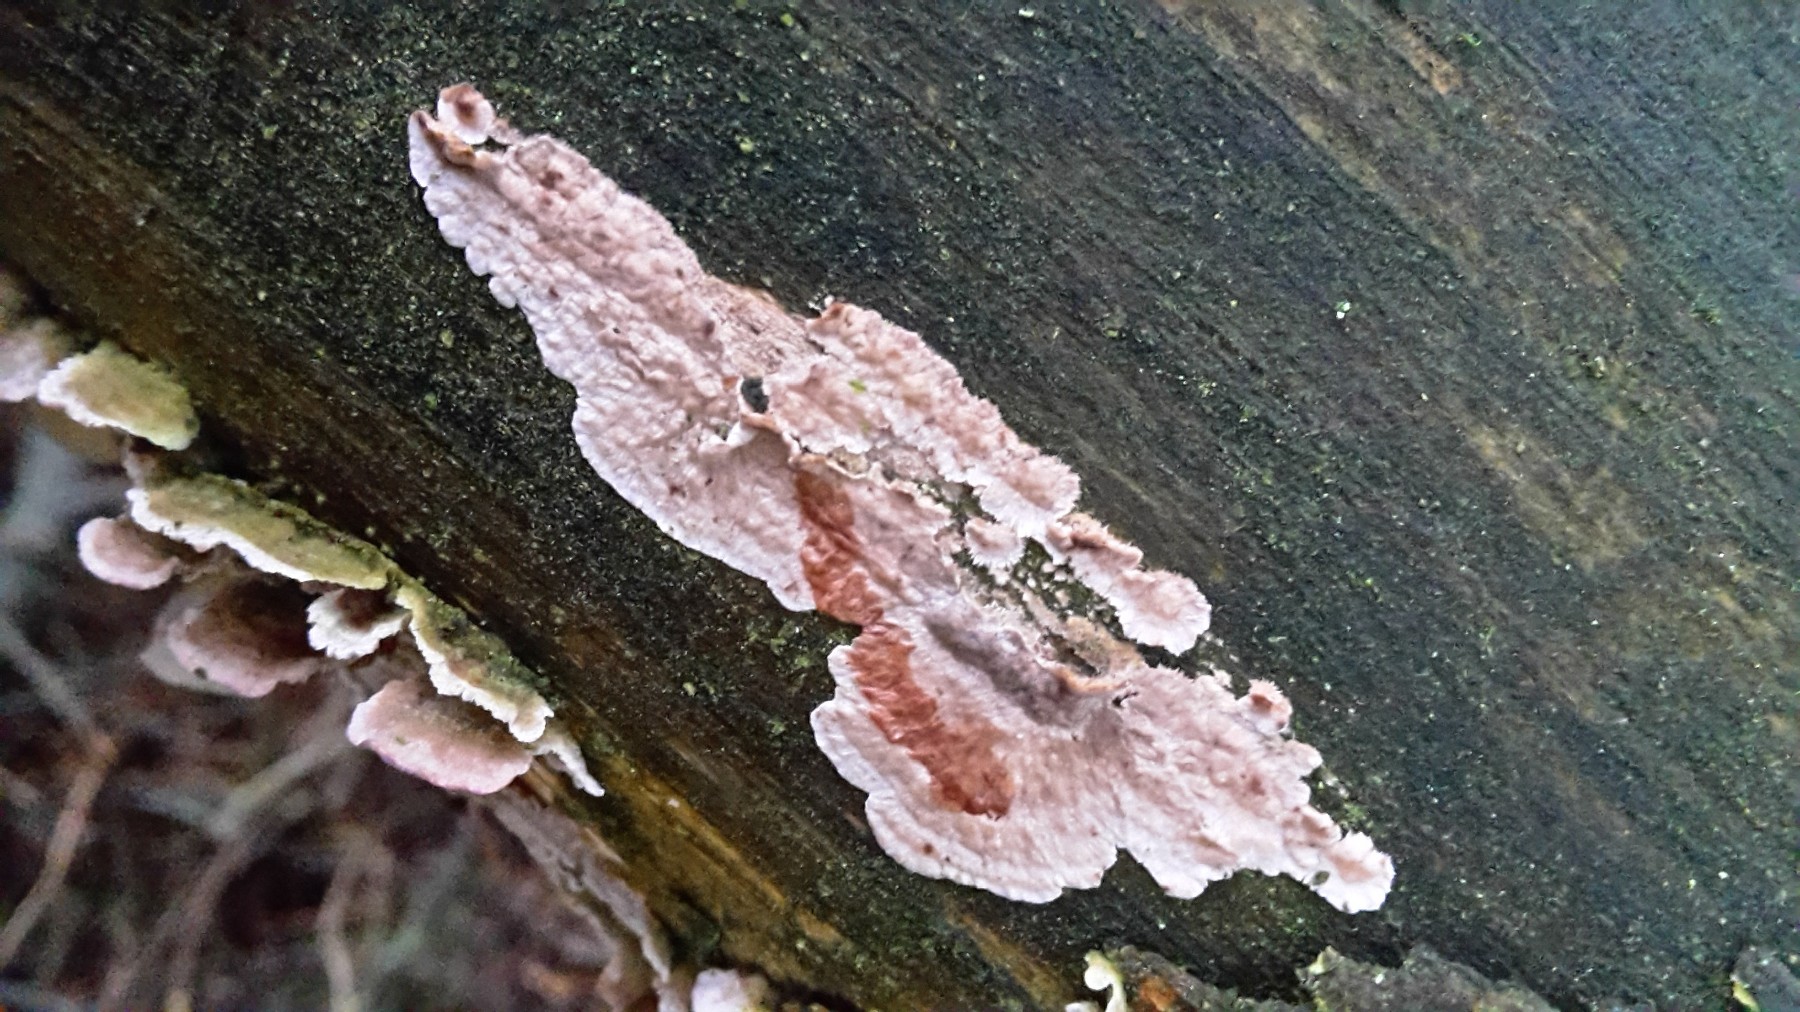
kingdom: Fungi
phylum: Basidiomycota
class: Agaricomycetes
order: Russulales
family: Stereaceae
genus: Stereum
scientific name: Stereum sanguinolentum
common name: blødende lædersvamp
